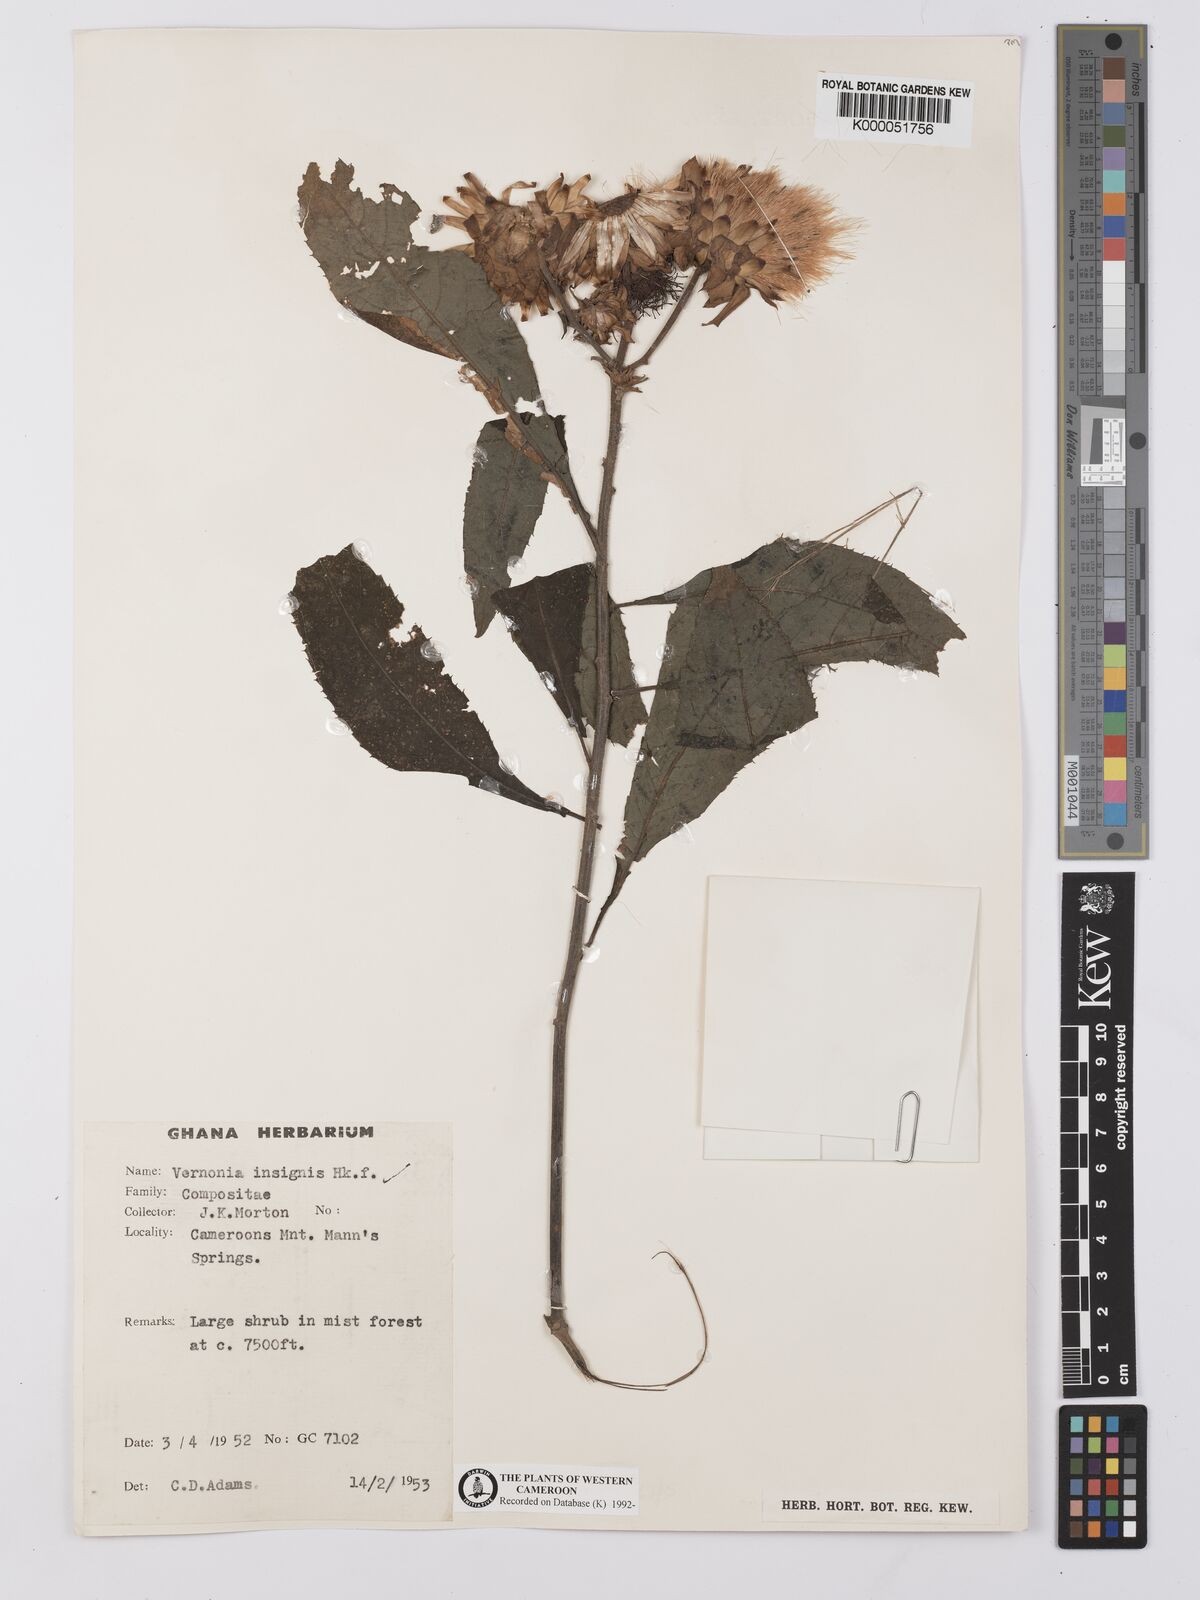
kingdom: Plantae
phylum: Tracheophyta
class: Magnoliopsida
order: Asterales
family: Asteraceae
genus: Baccharoides
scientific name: Baccharoides hymenolepis
